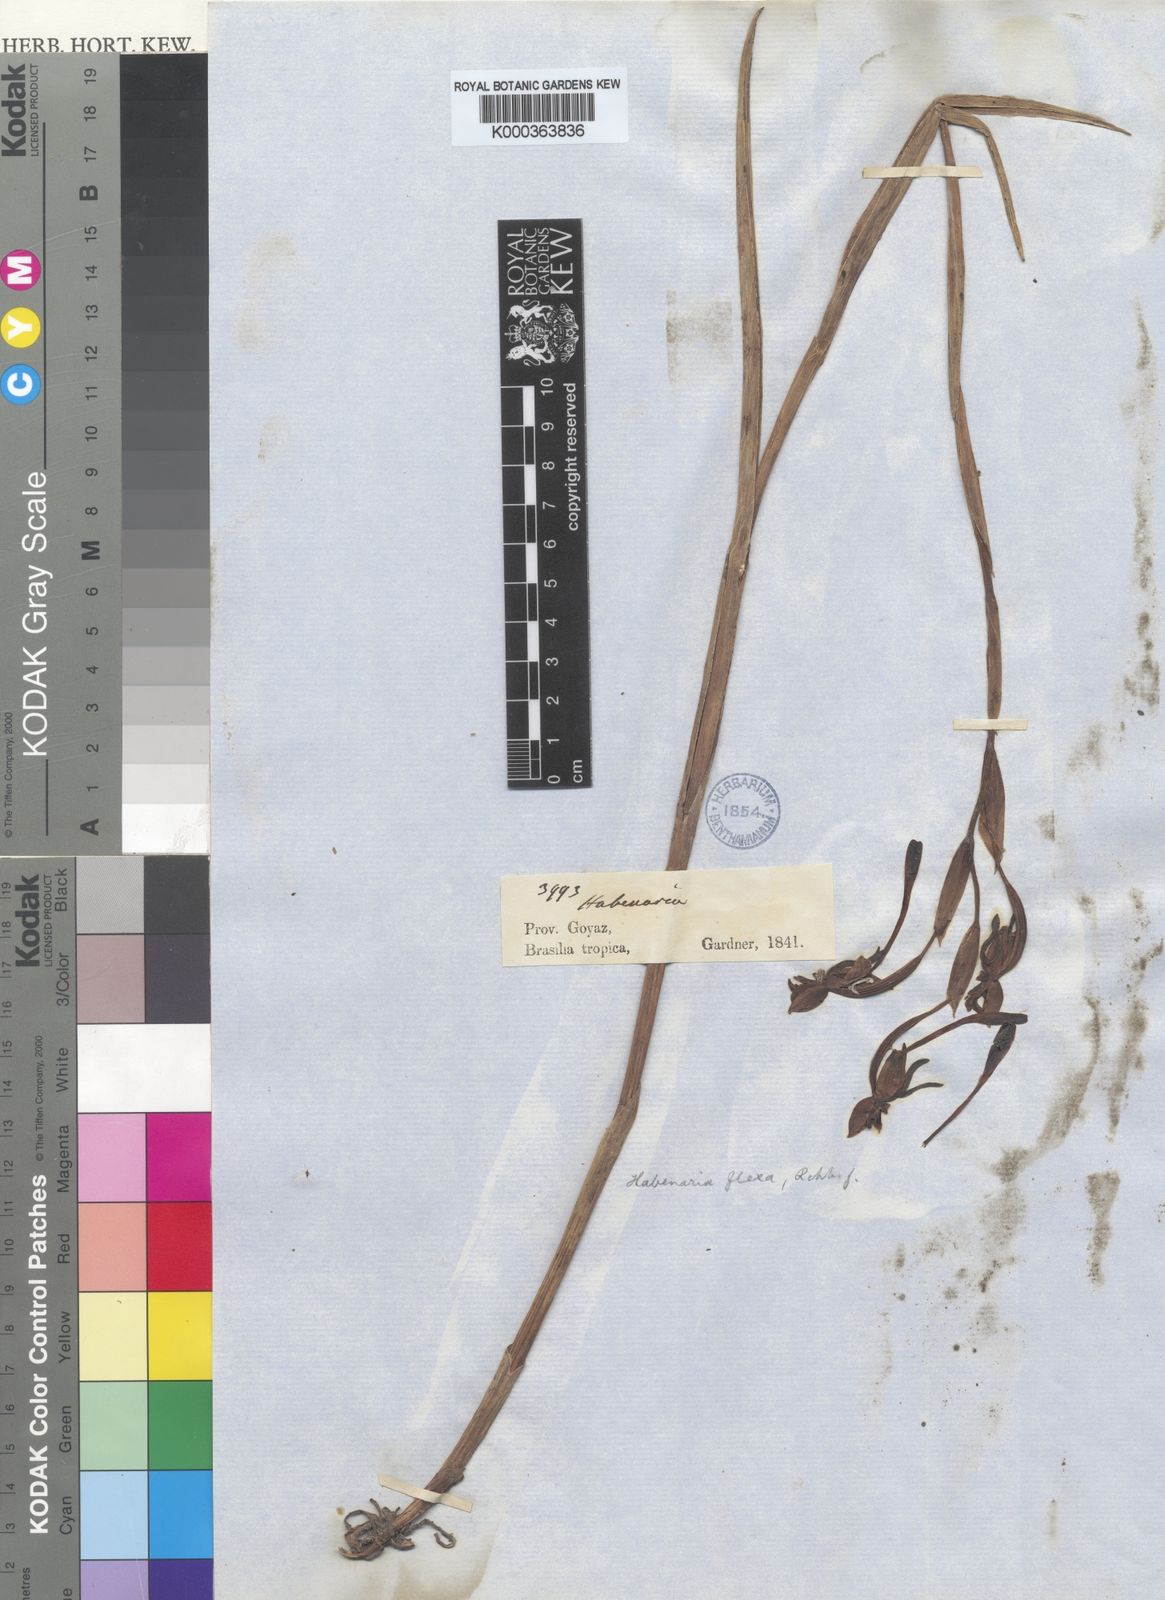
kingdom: Plantae
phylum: Tracheophyta
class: Liliopsida
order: Asparagales
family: Orchidaceae
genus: Habenaria
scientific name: Habenaria trifida
